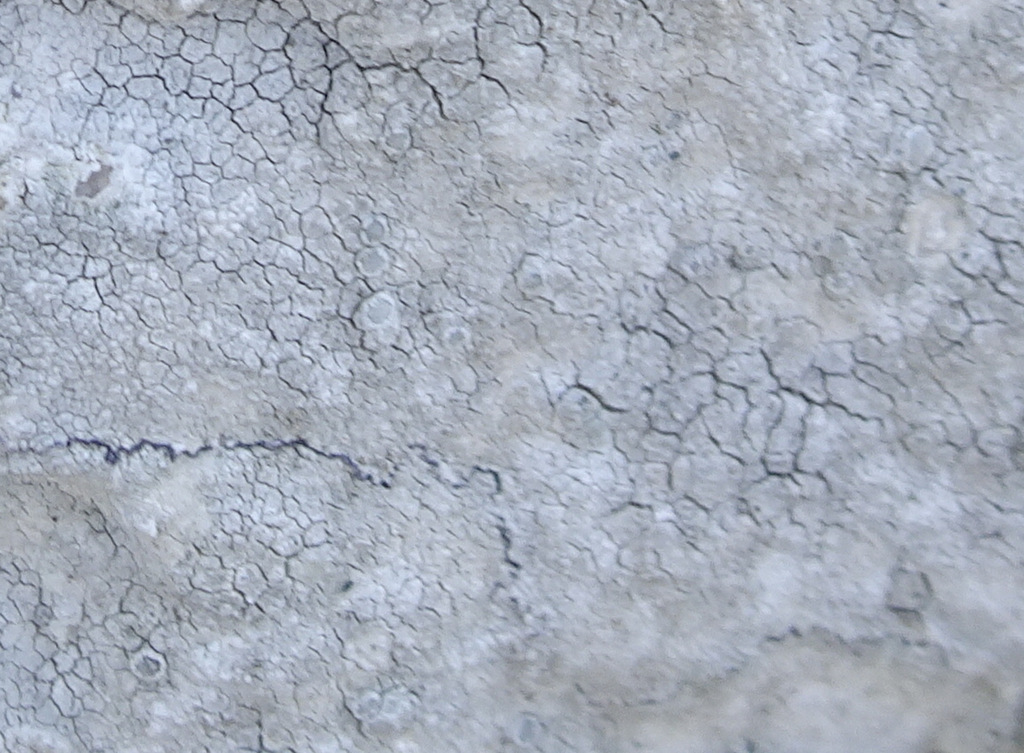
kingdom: Fungi
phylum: Ascomycota
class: Lecanoromycetes
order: Lecanorales
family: Lecanoraceae
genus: Glaucomaria
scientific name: Glaucomaria rupicola
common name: stengærde-kantskivelav
